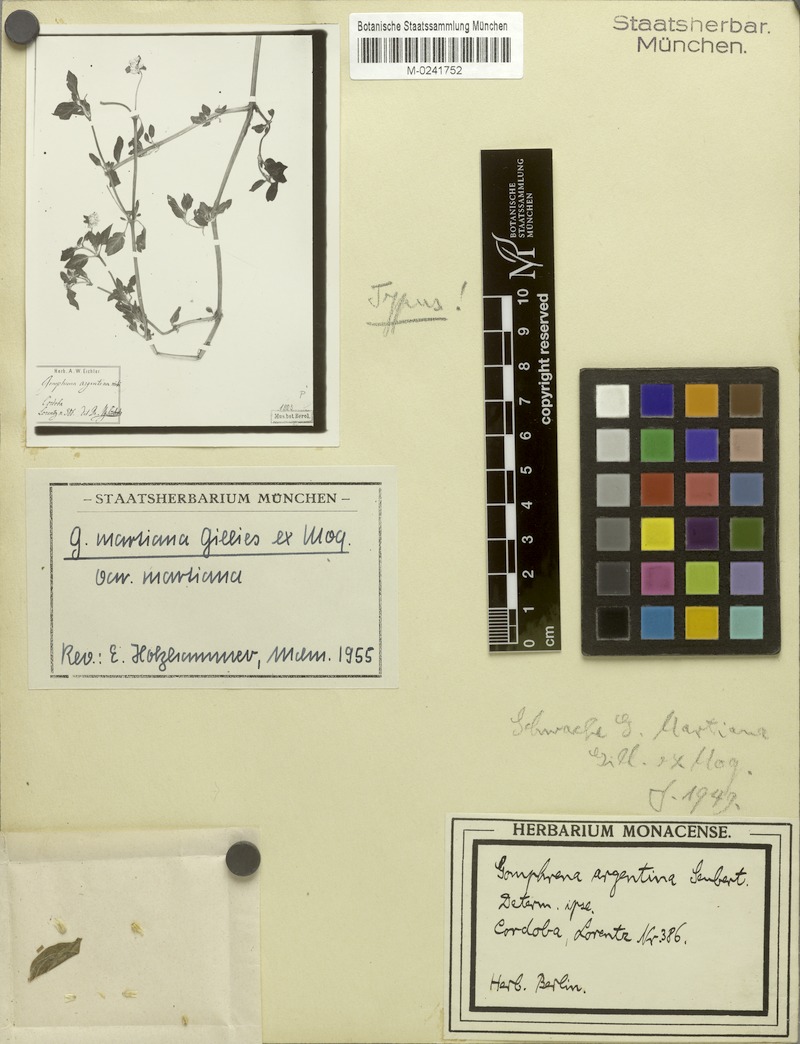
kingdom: Plantae
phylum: Tracheophyta
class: Magnoliopsida
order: Caryophyllales
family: Amaranthaceae
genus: Gomphrena
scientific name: Gomphrena martiana
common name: Globe amaranth
